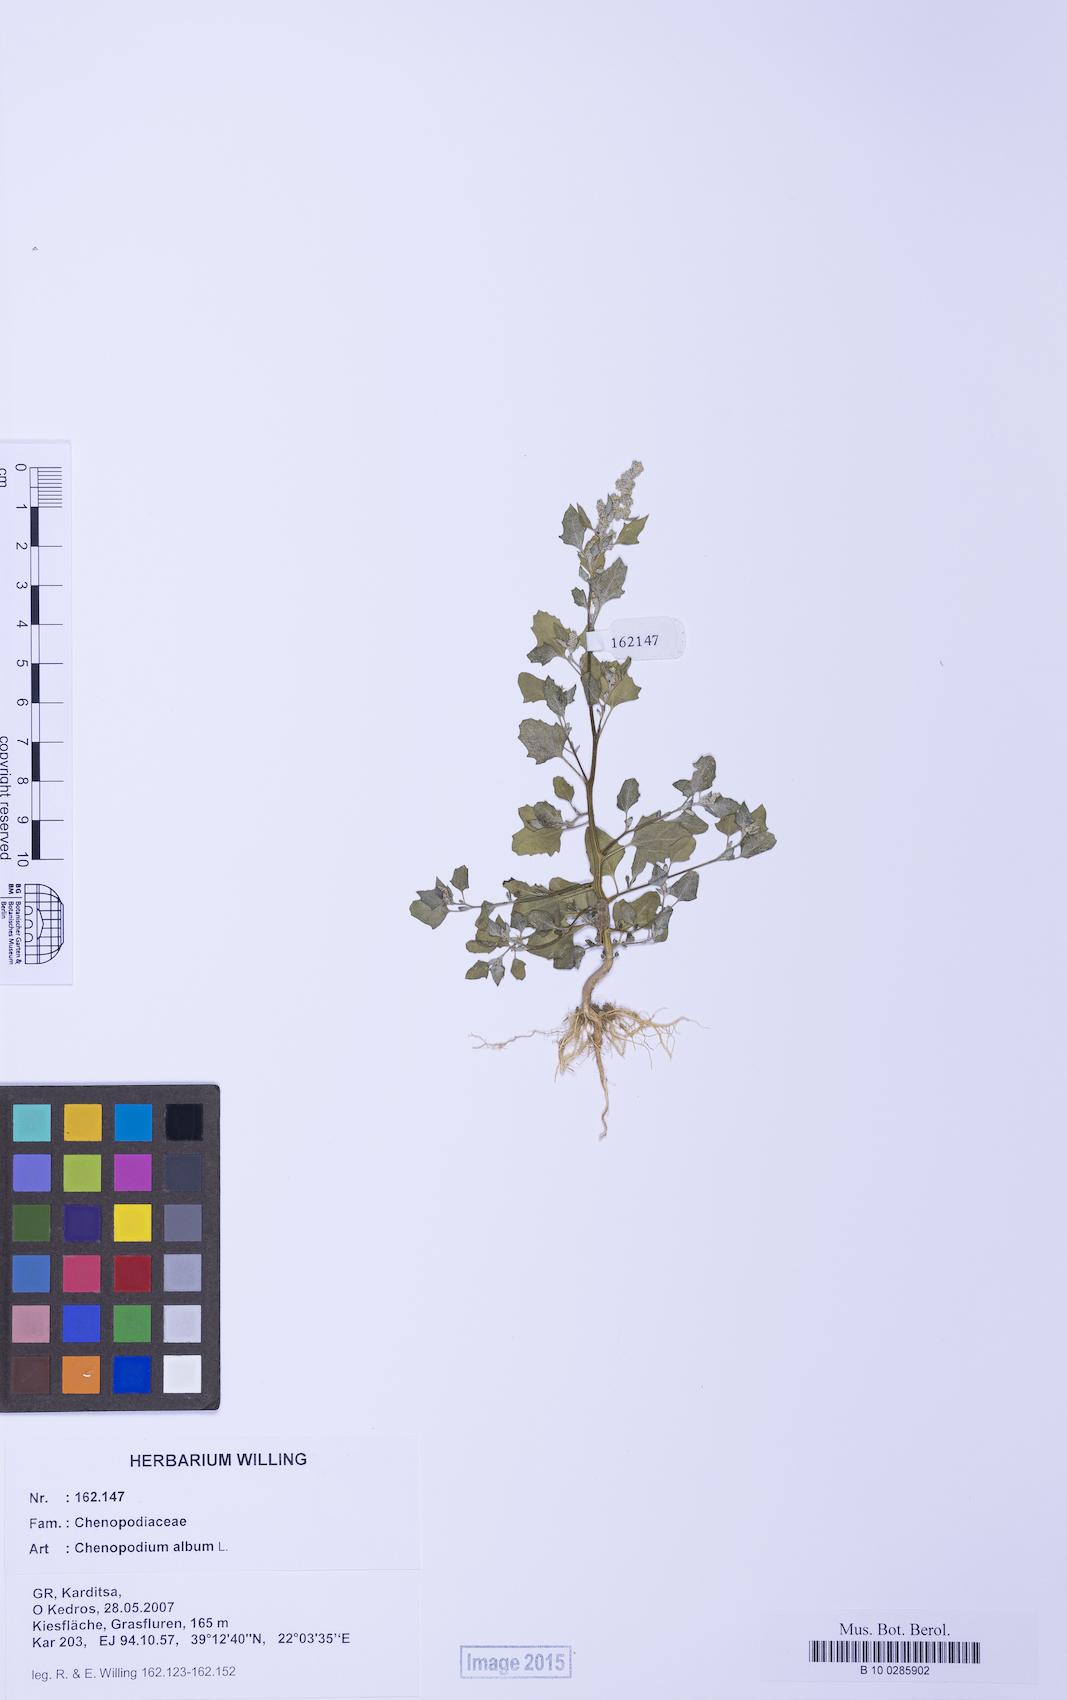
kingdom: Plantae
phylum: Tracheophyta
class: Magnoliopsida
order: Caryophyllales
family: Amaranthaceae
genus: Chenopodium
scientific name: Chenopodium album
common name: Fat-hen
